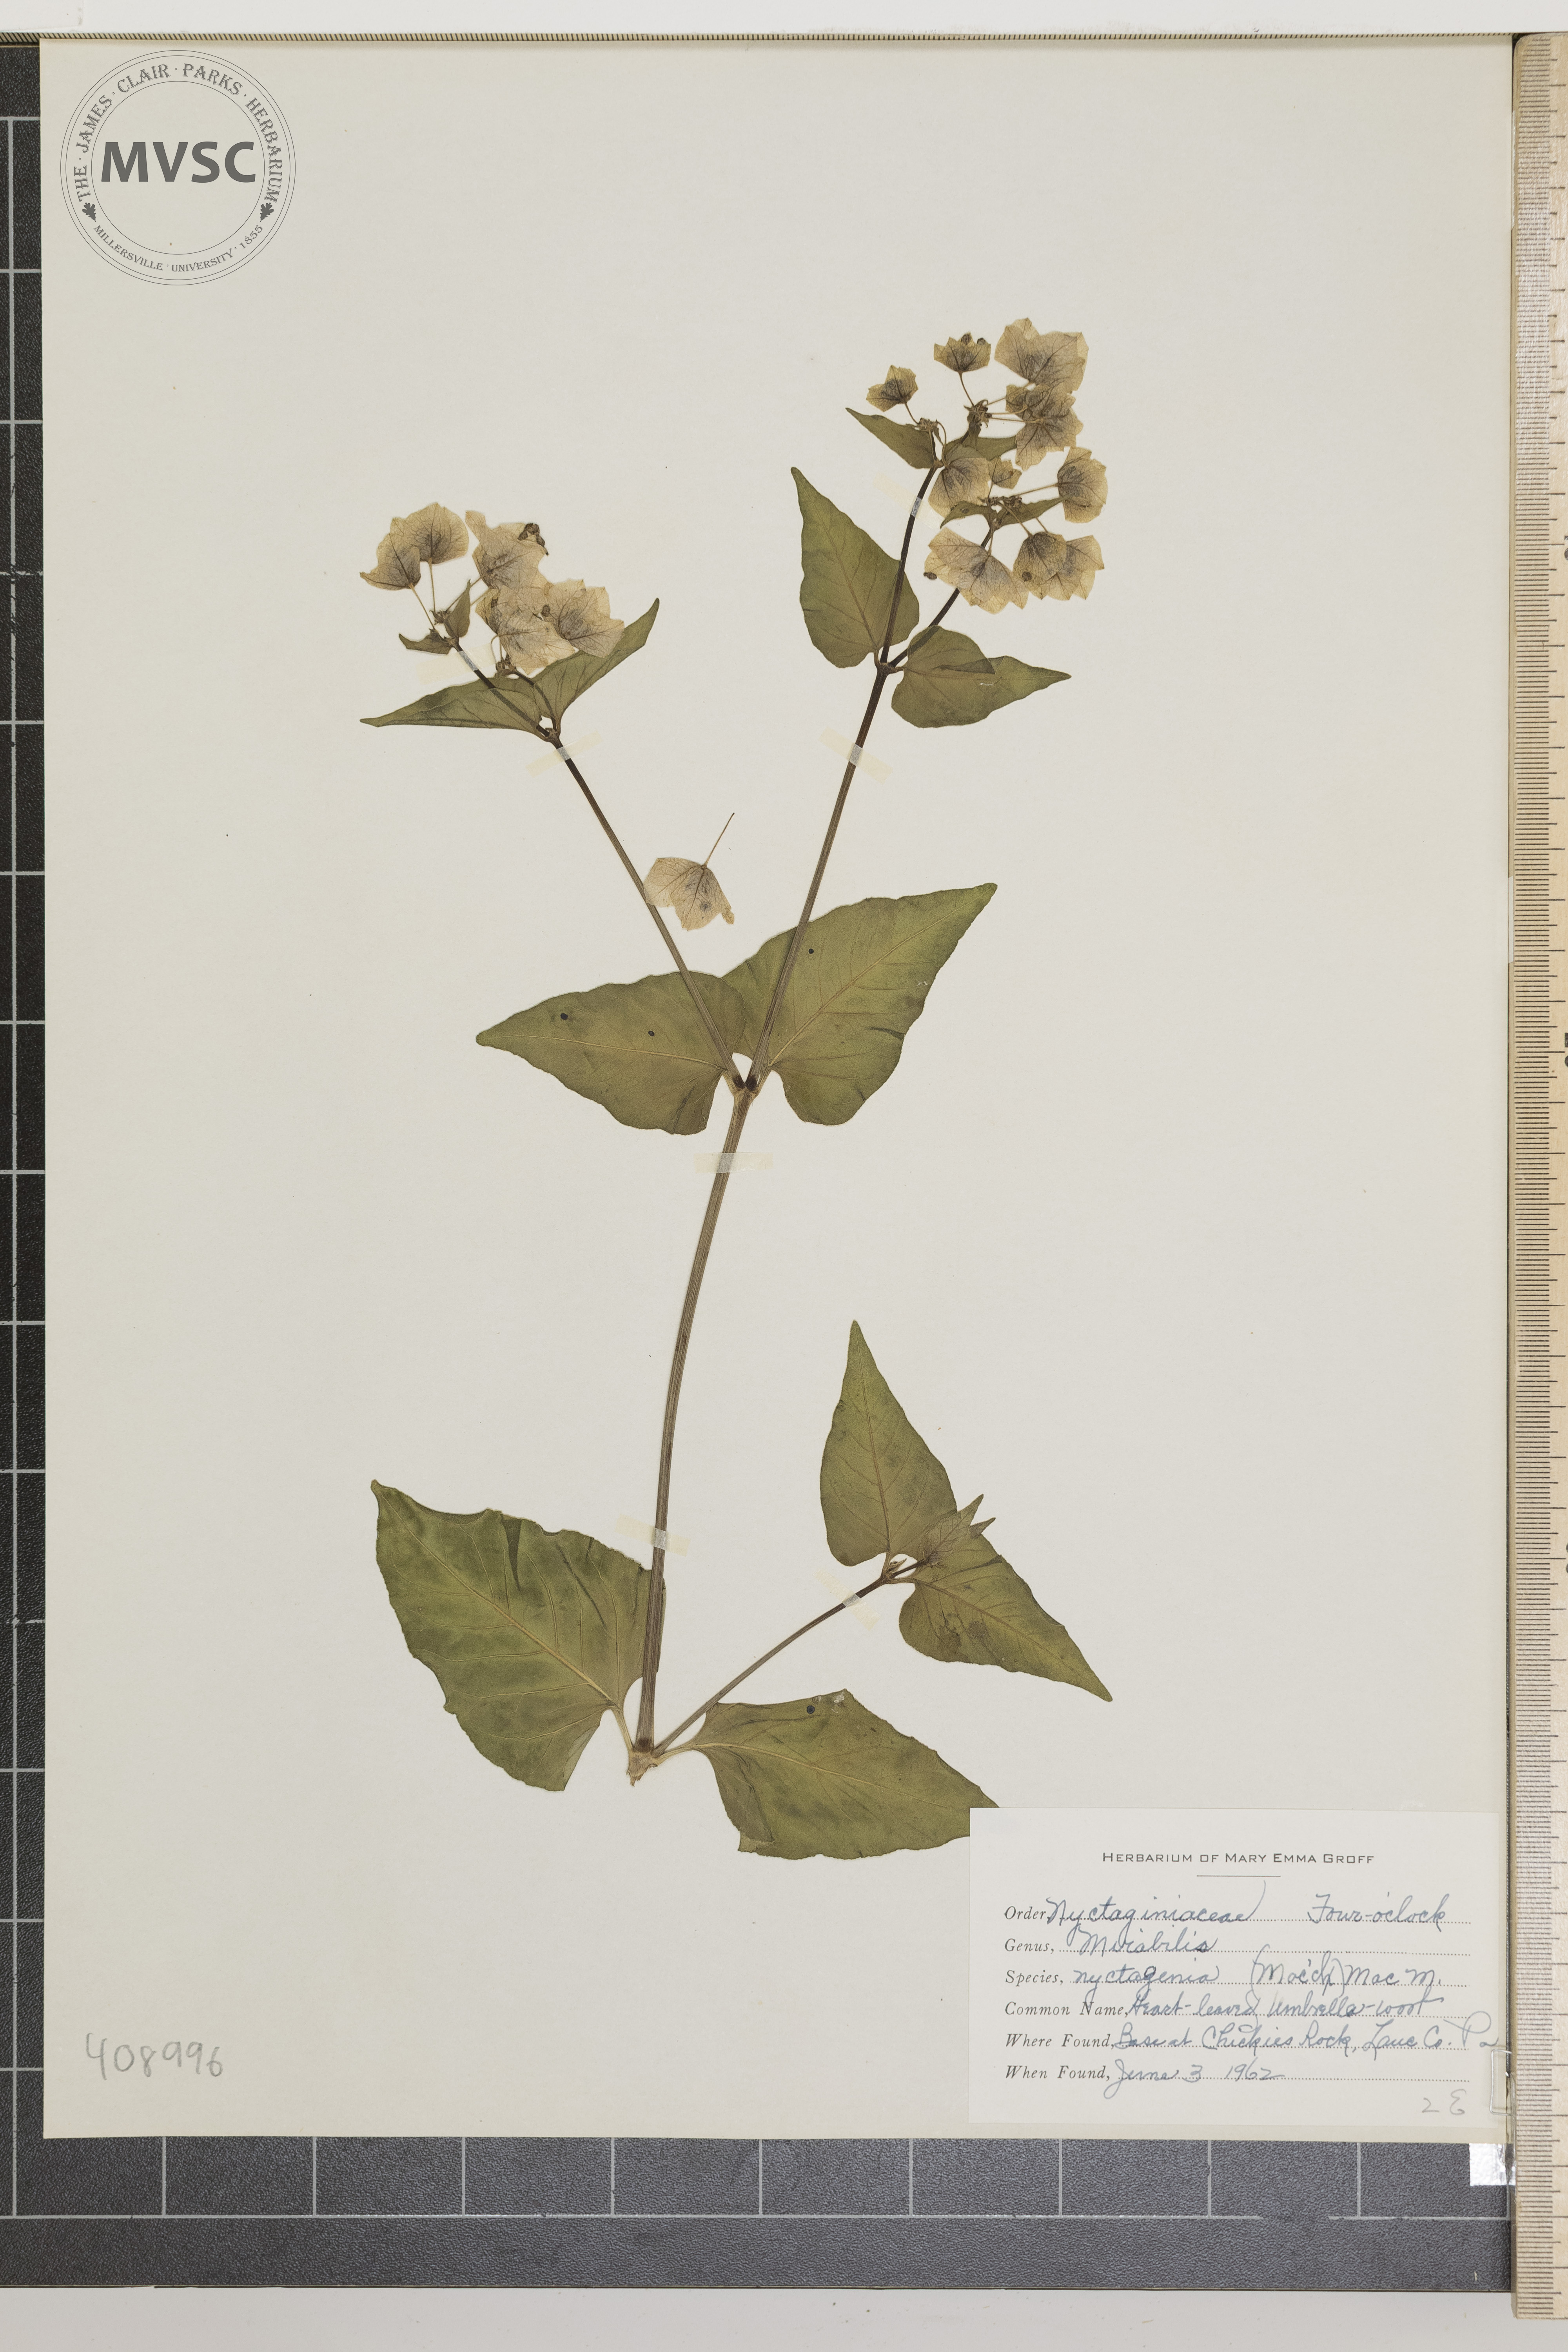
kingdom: Plantae
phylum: Tracheophyta
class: Magnoliopsida
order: Caryophyllales
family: Nyctaginaceae
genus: Mirabilis
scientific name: Mirabilis nyctaginea
